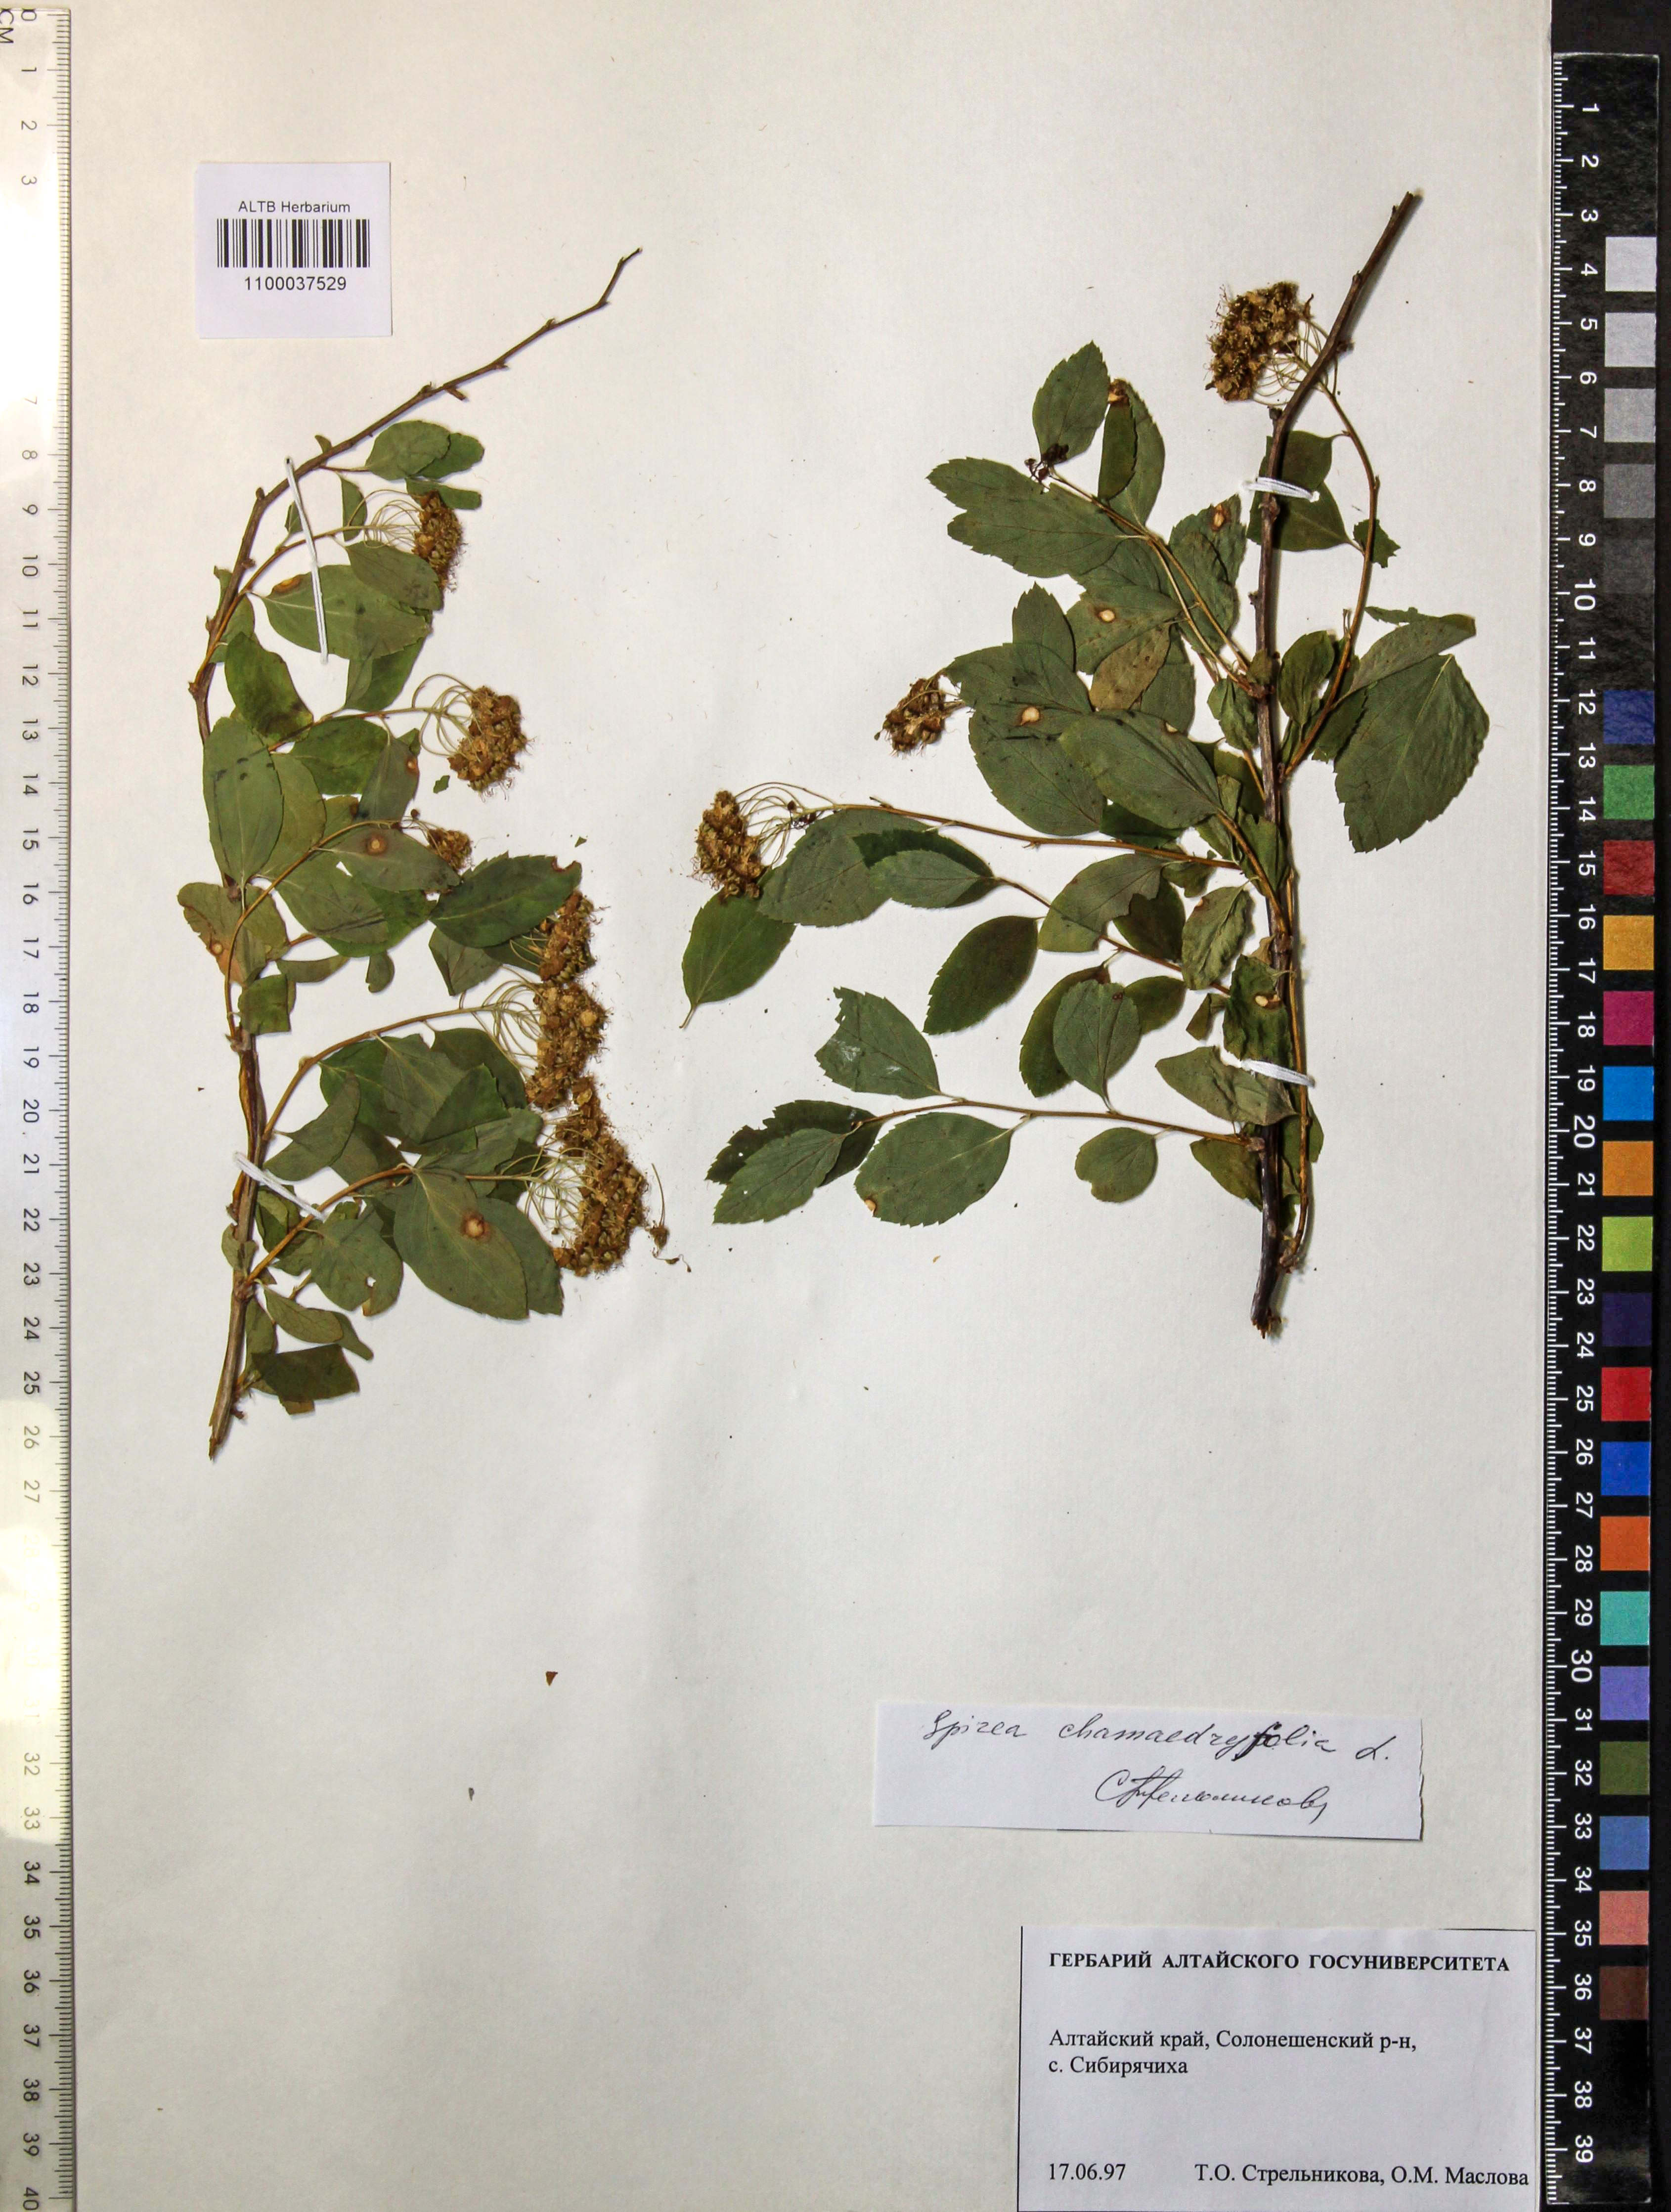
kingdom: Plantae
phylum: Tracheophyta
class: Magnoliopsida
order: Rosales
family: Rosaceae
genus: Spiraea
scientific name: Spiraea chamaedryfolia
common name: Elm-leaved spiraea
